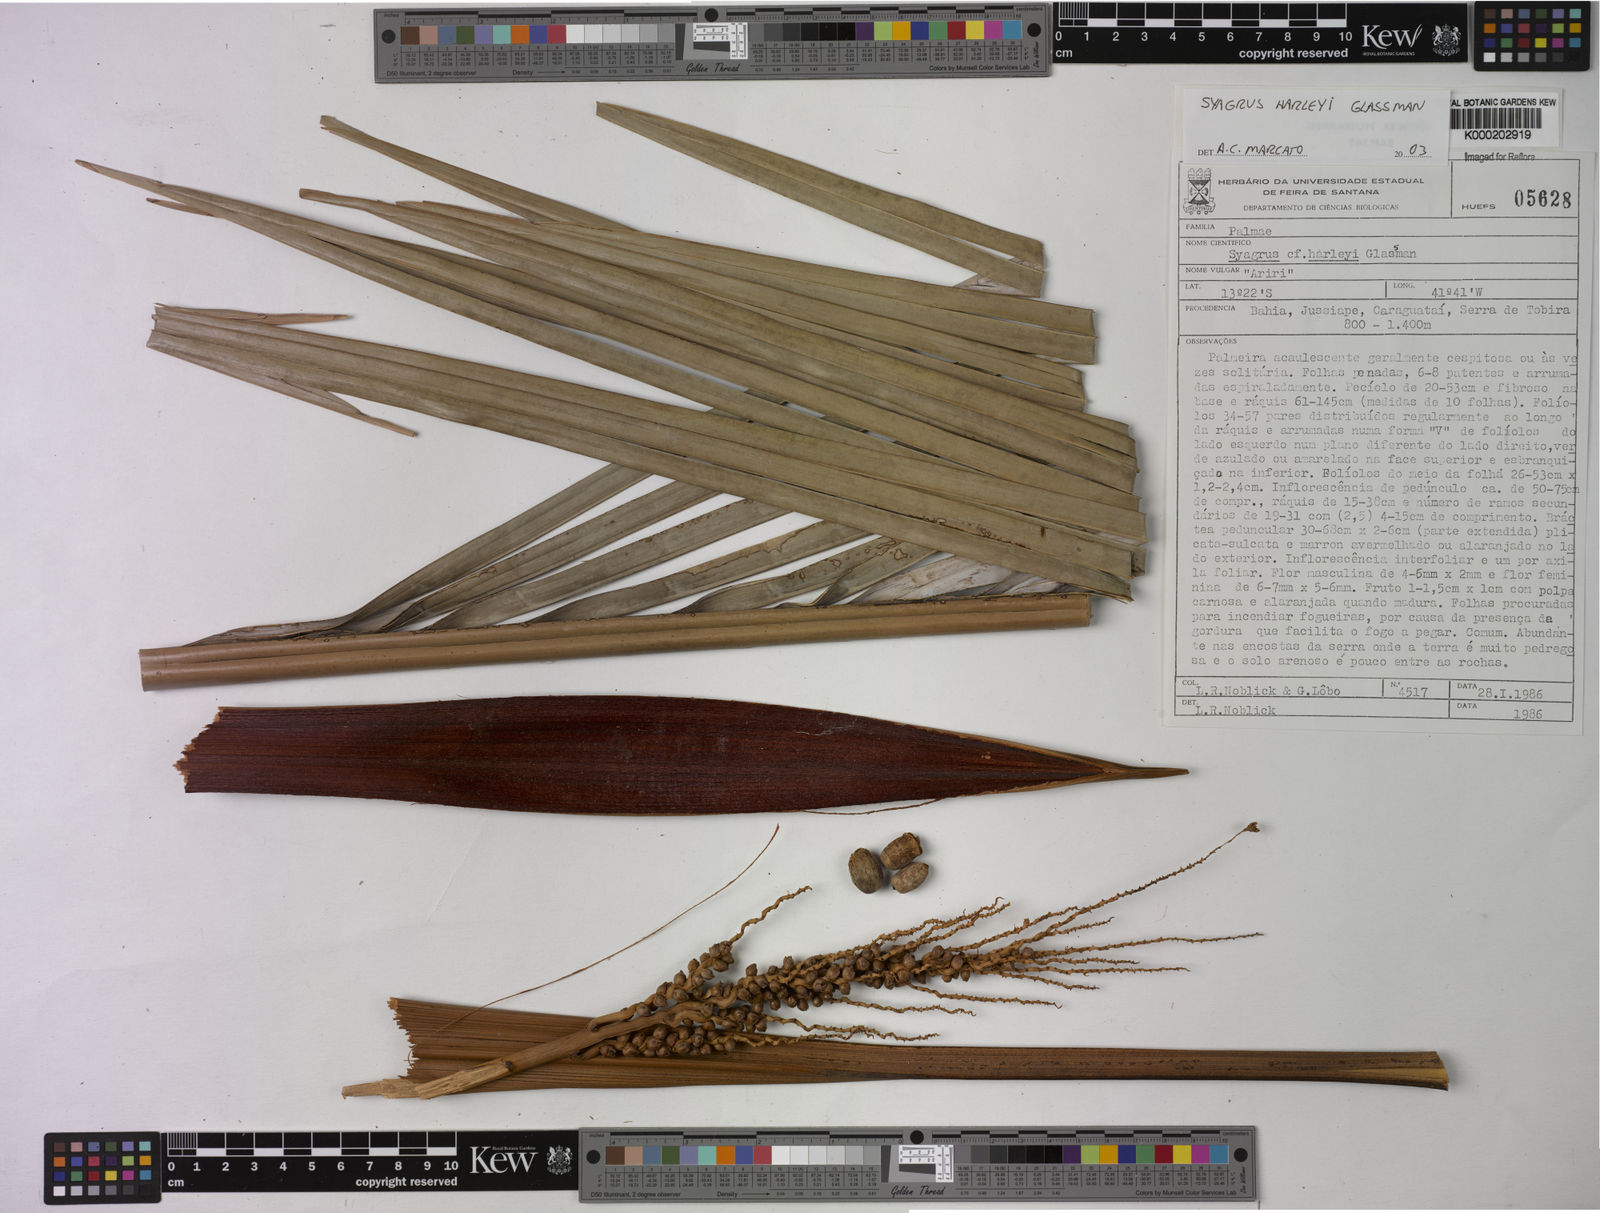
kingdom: Plantae
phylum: Tracheophyta
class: Liliopsida
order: Arecales
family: Arecaceae
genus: Syagrus
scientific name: Syagrus harleyi
